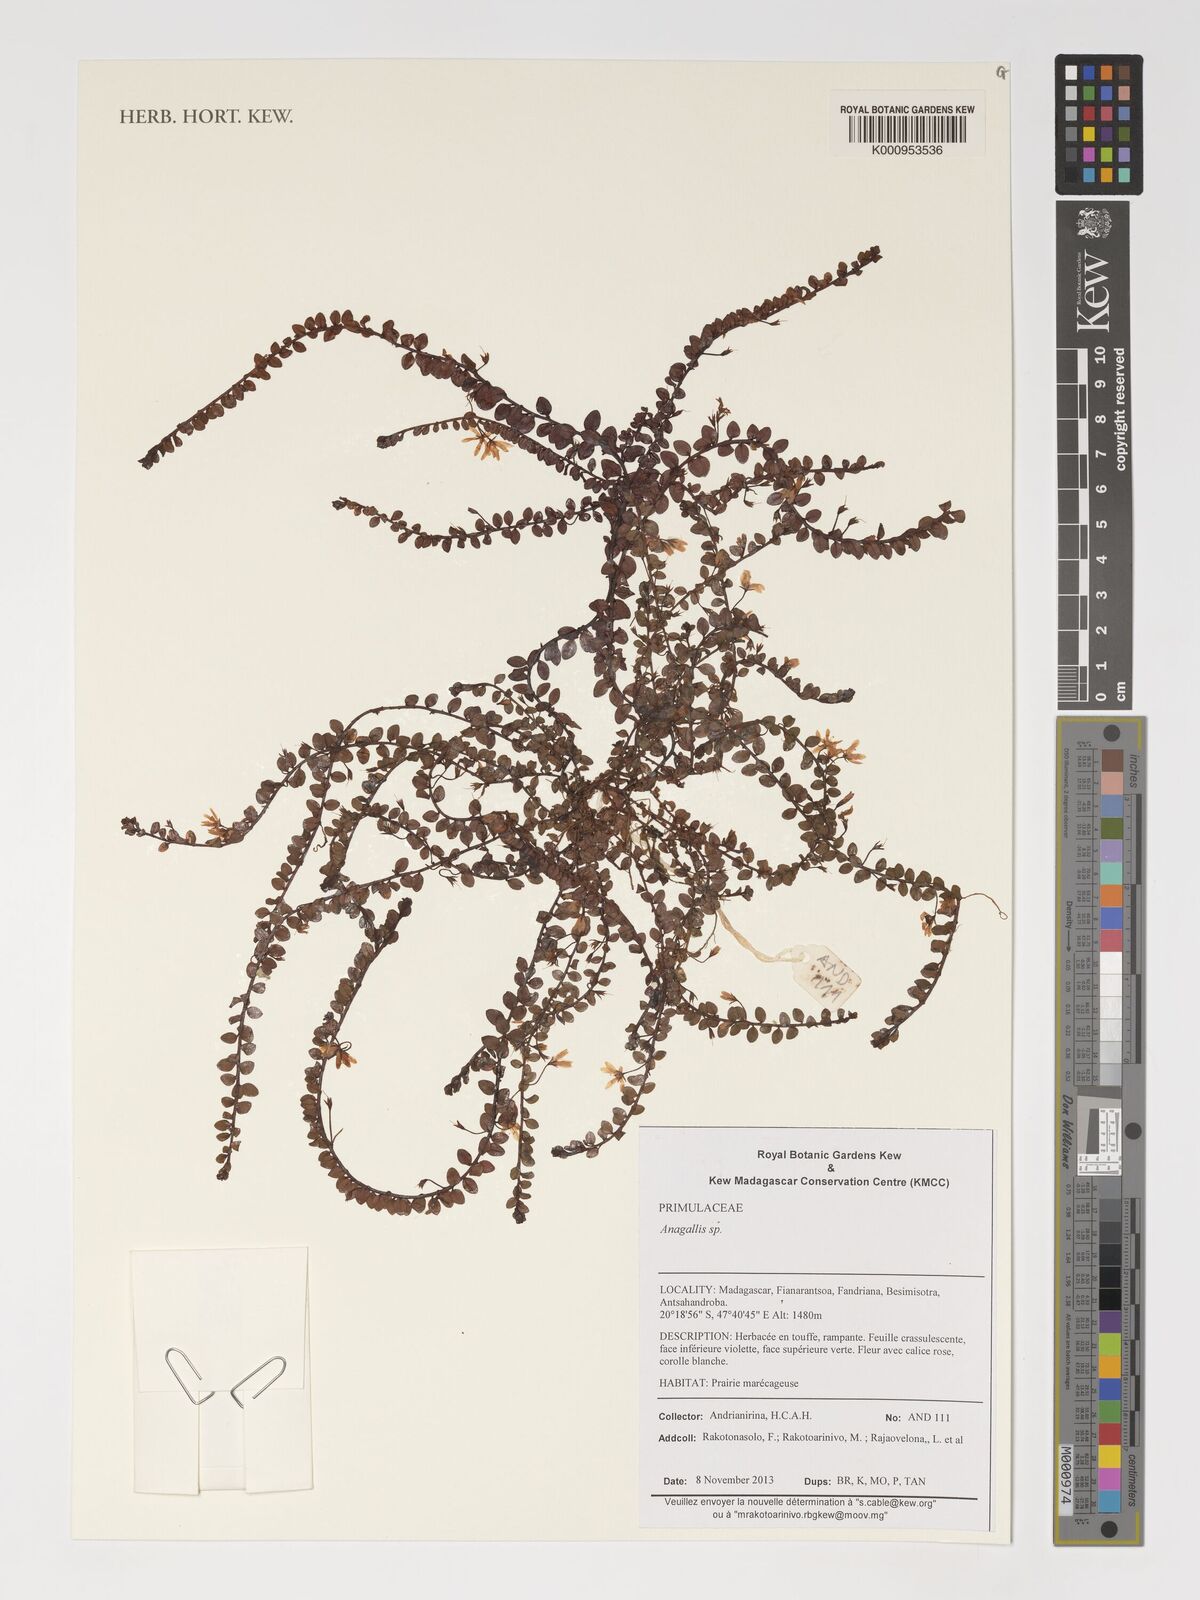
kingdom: Plantae
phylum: Tracheophyta
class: Magnoliopsida
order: Ericales
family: Primulaceae
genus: Lysimachia
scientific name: Lysimachia Anagallis spec
